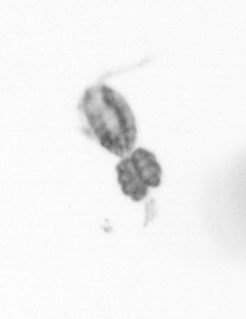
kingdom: Animalia
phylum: Arthropoda
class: Copepoda
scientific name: Copepoda
